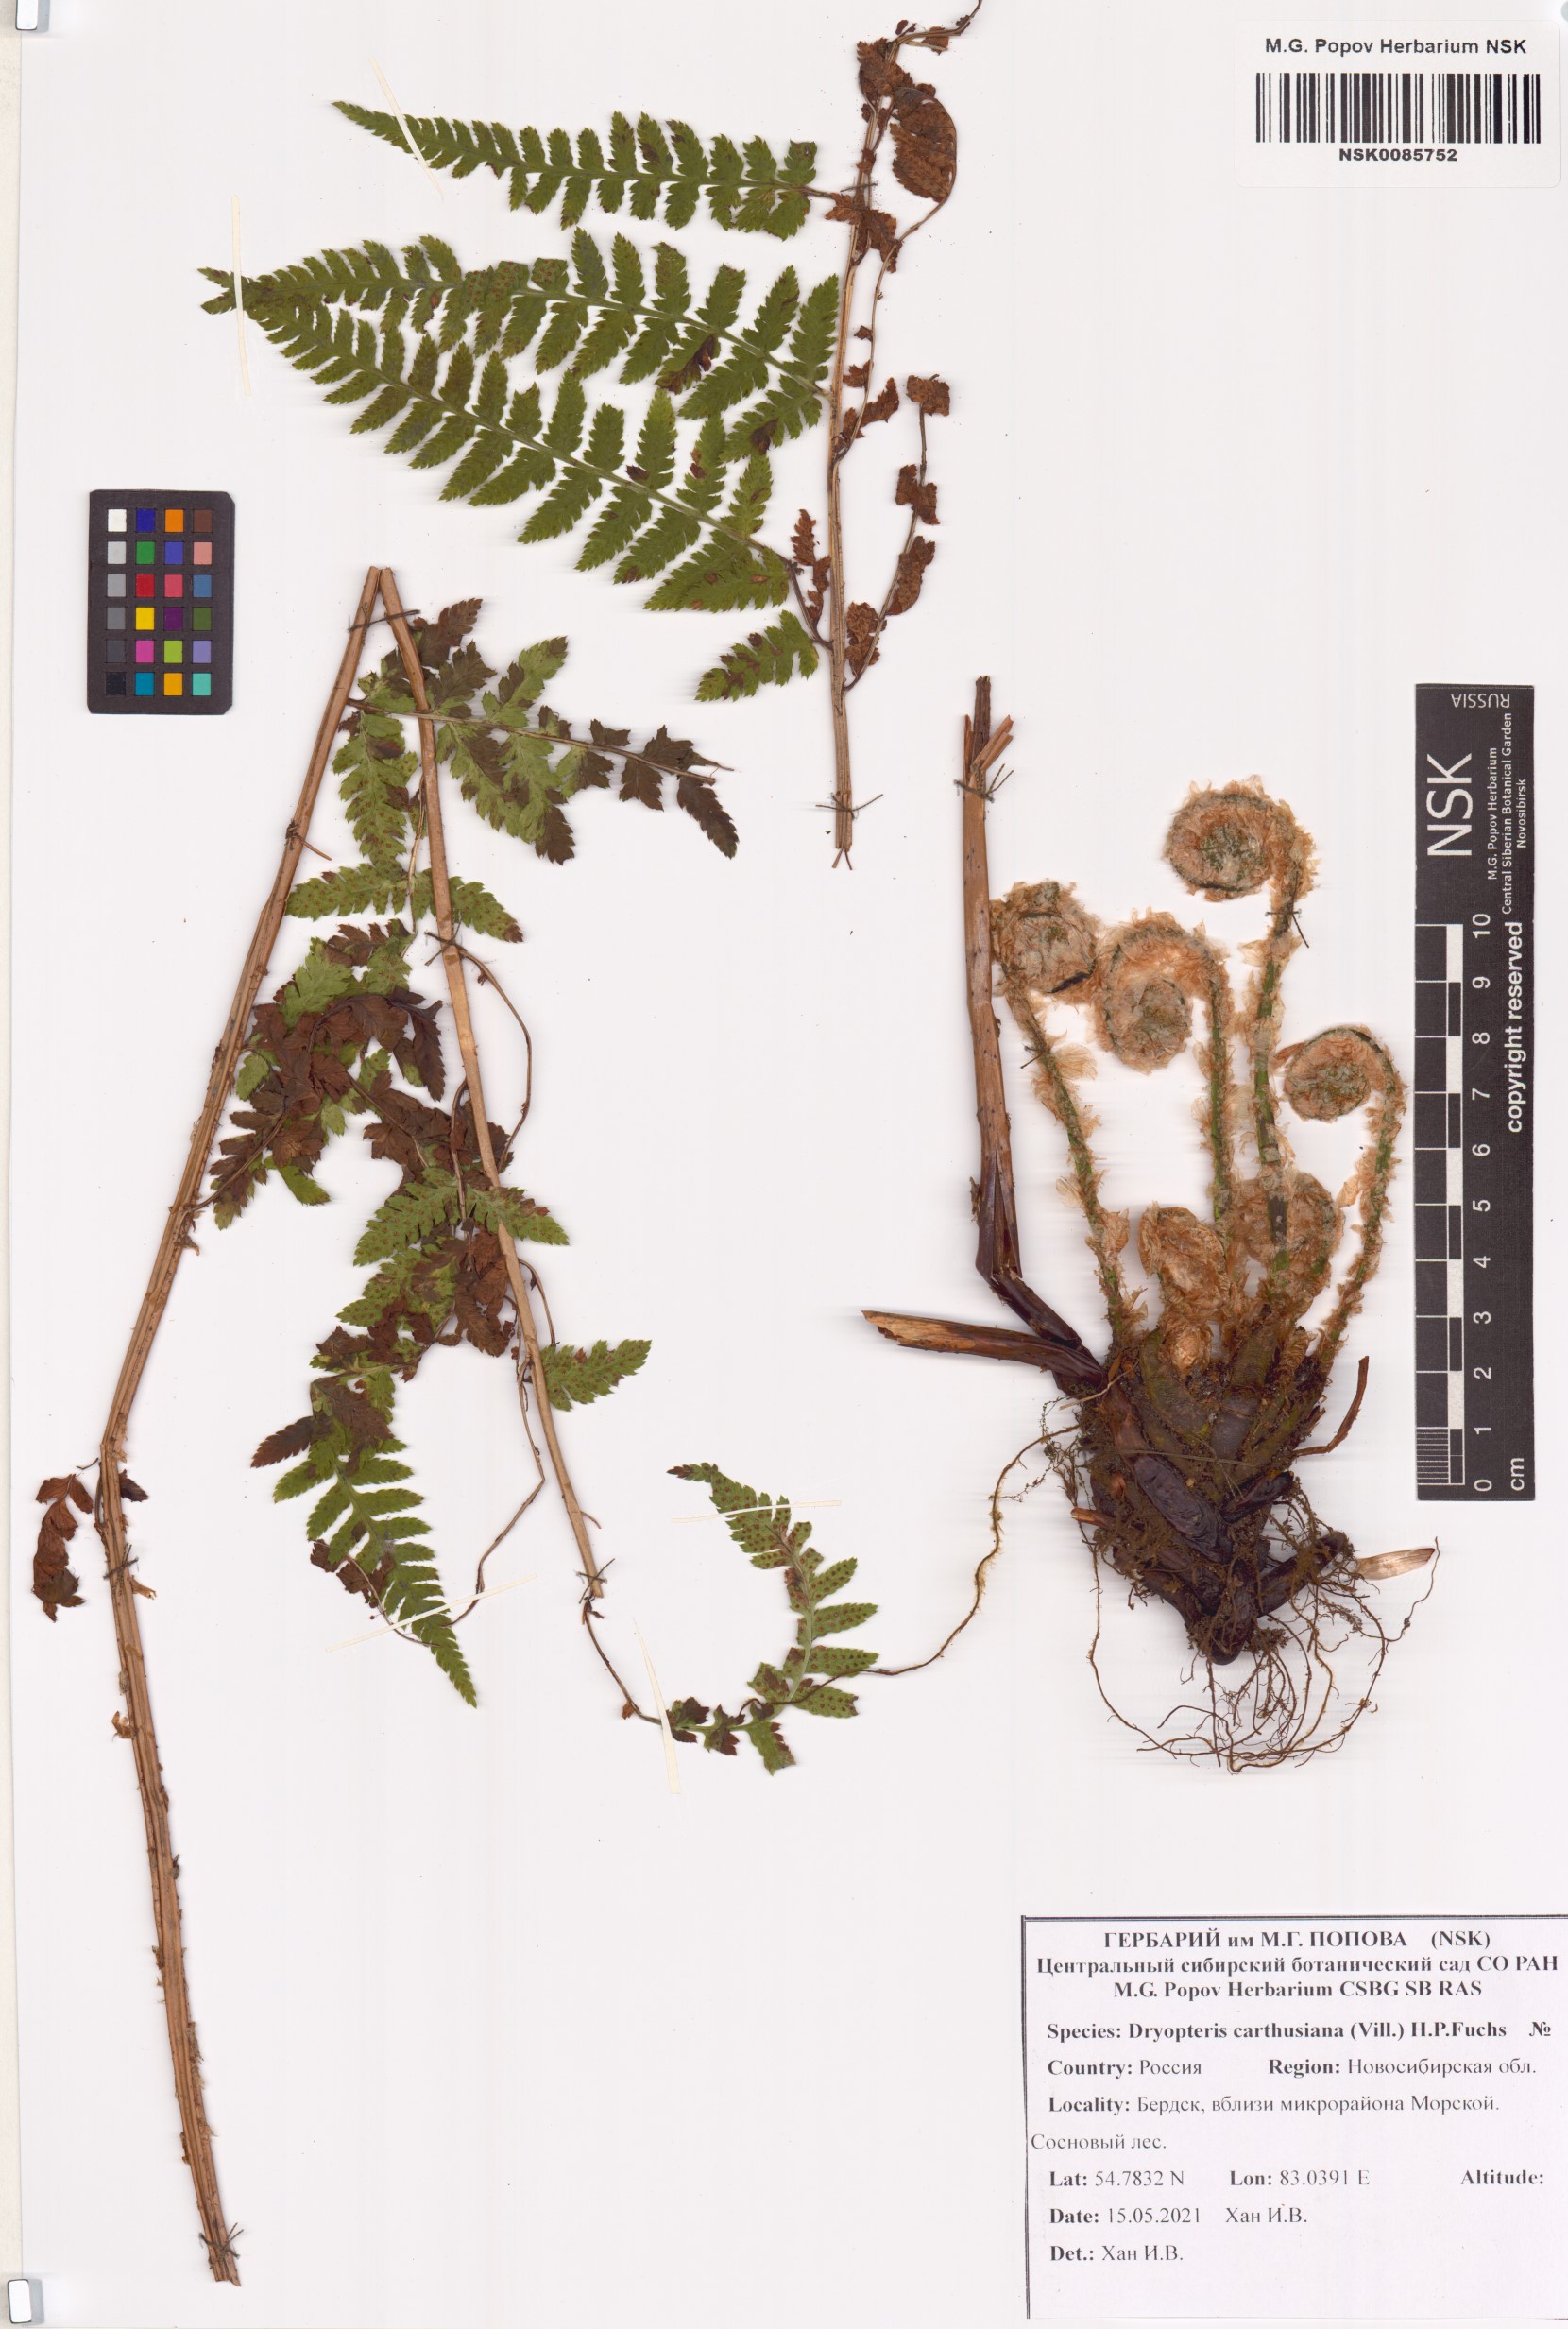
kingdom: Plantae
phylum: Tracheophyta
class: Polypodiopsida
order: Polypodiales
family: Dryopteridaceae
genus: Dryopteris
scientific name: Dryopteris carthusiana
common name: Narrow buckler-fern
